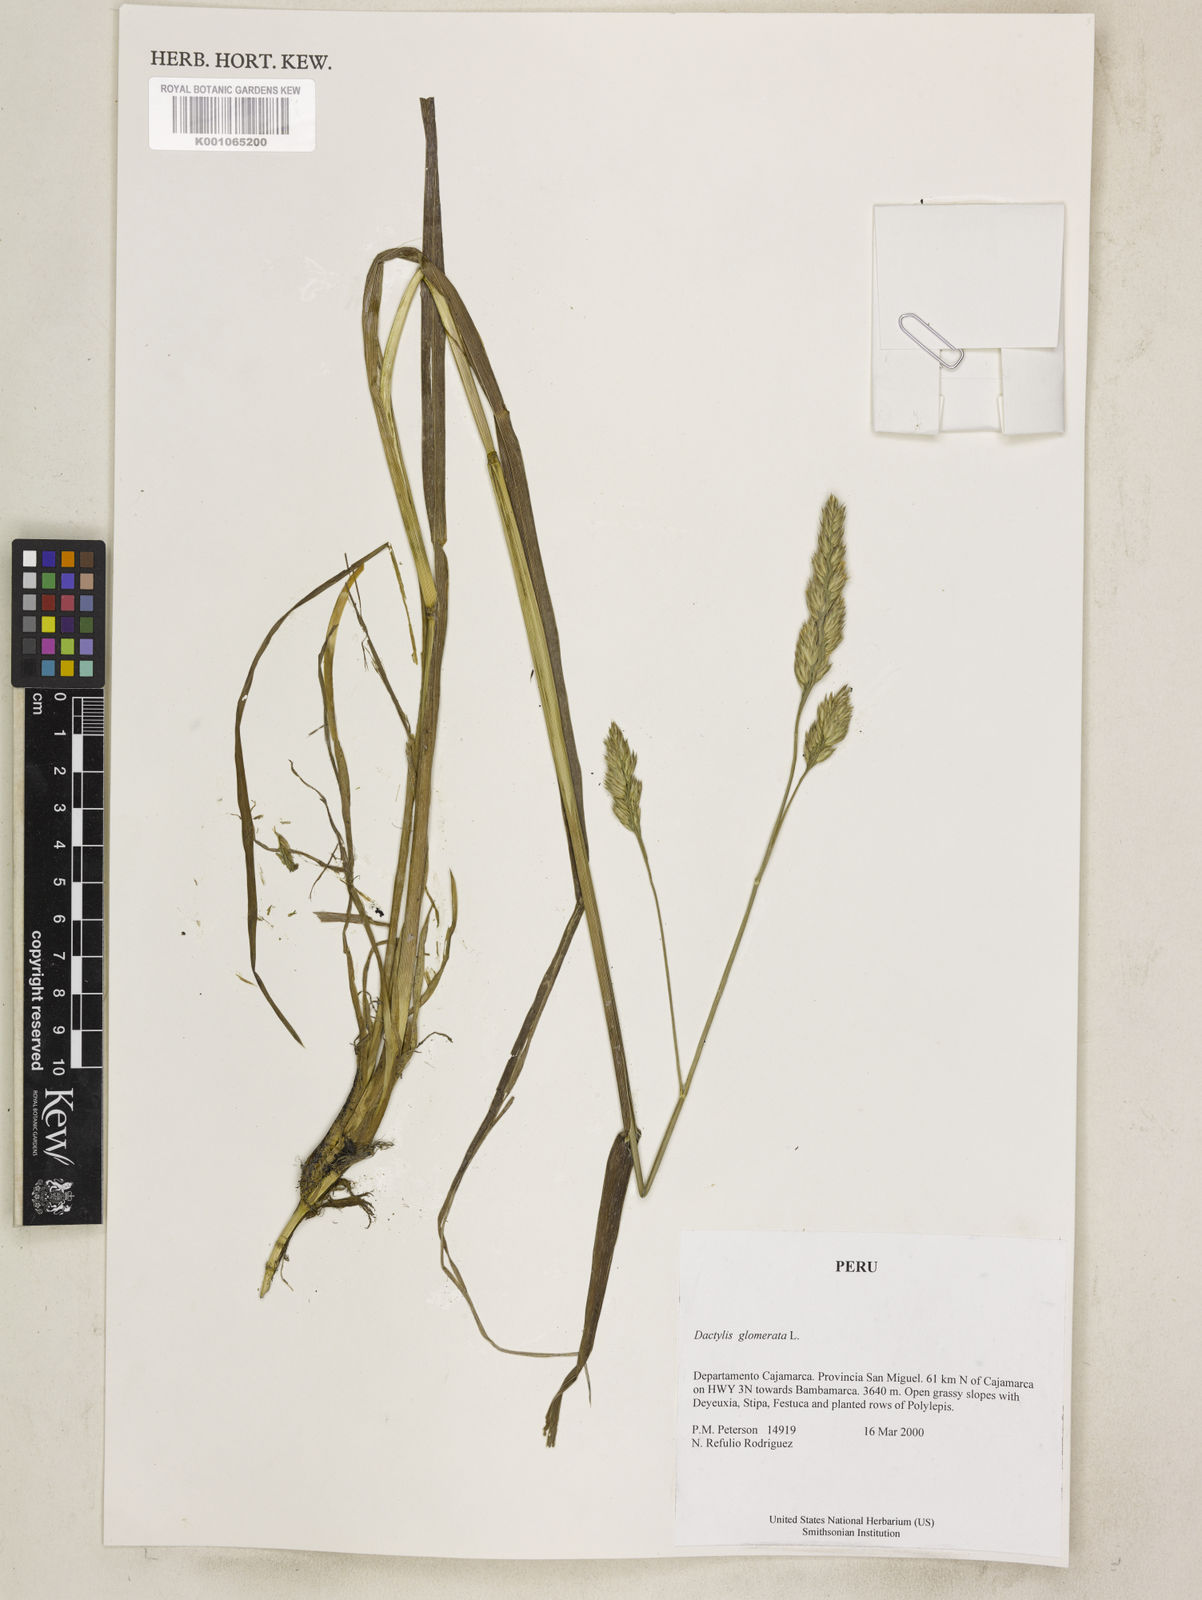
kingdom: Plantae
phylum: Tracheophyta
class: Liliopsida
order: Poales
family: Poaceae
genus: Dactylis
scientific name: Dactylis glomerata
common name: Orchardgrass
